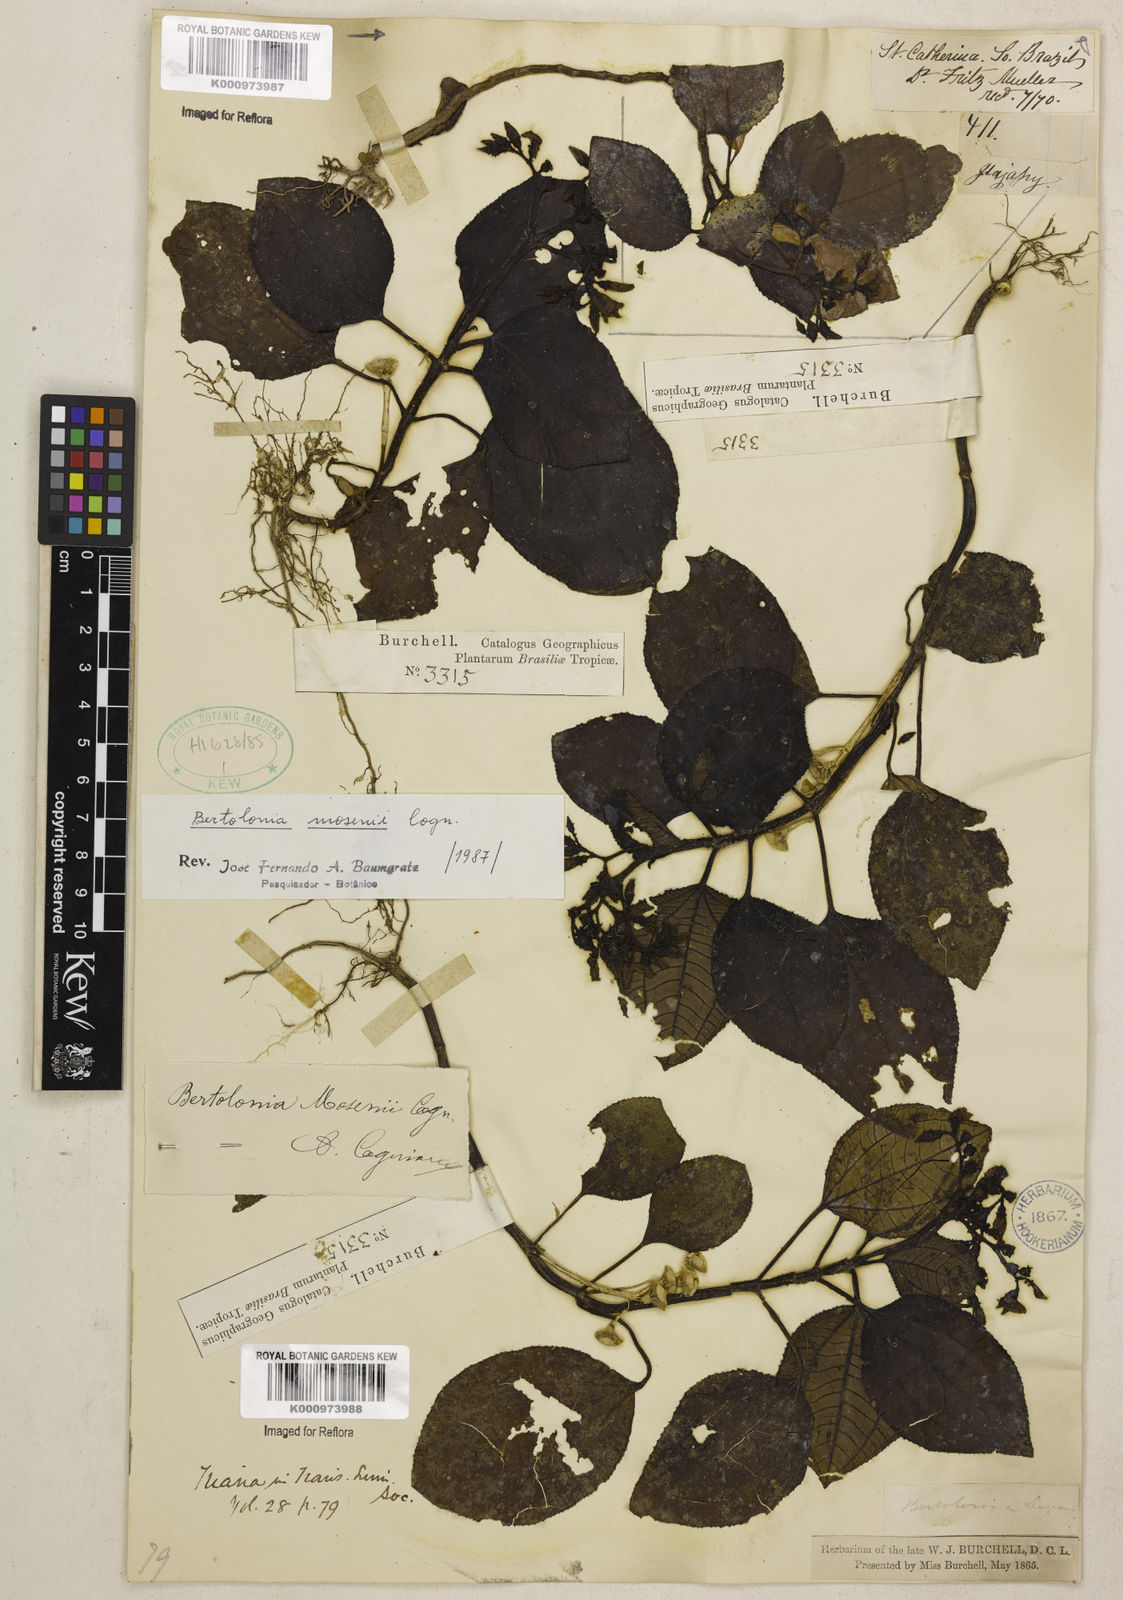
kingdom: Plantae
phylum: Tracheophyta
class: Magnoliopsida
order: Myrtales
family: Melastomataceae
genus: Bertolonia
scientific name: Bertolonia mosenii
